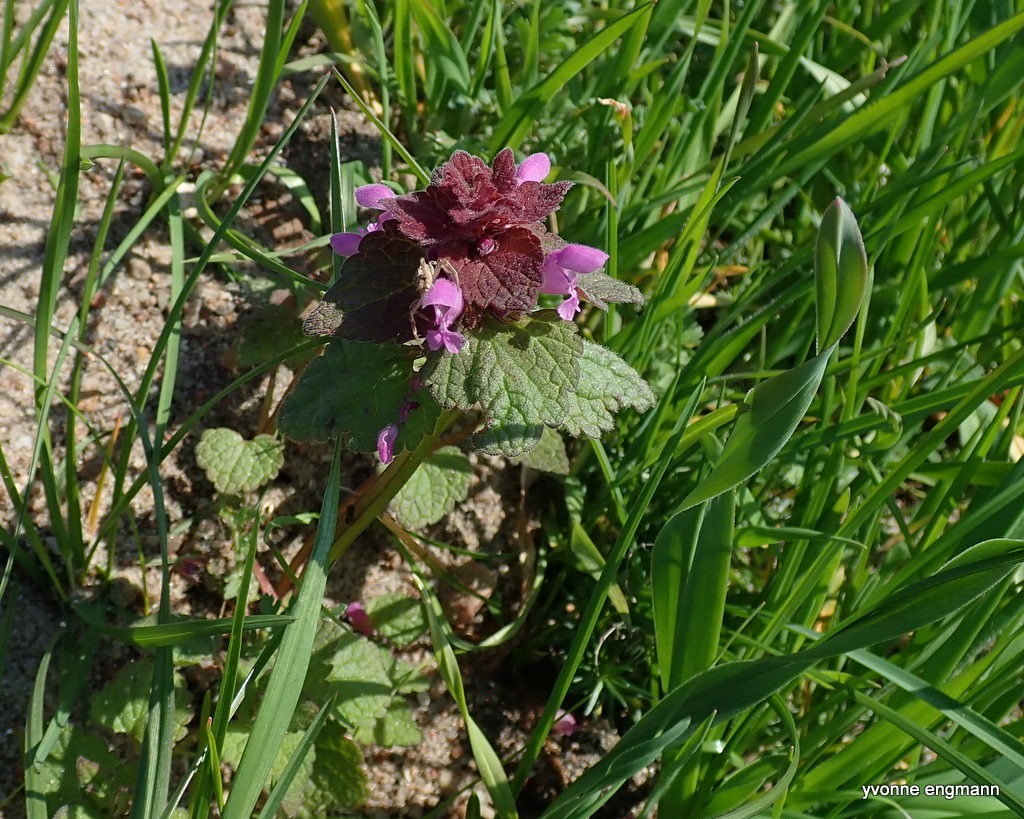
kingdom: Plantae
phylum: Tracheophyta
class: Magnoliopsida
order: Lamiales
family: Lamiaceae
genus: Lamium
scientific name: Lamium purpureum
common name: Rød tvetand
